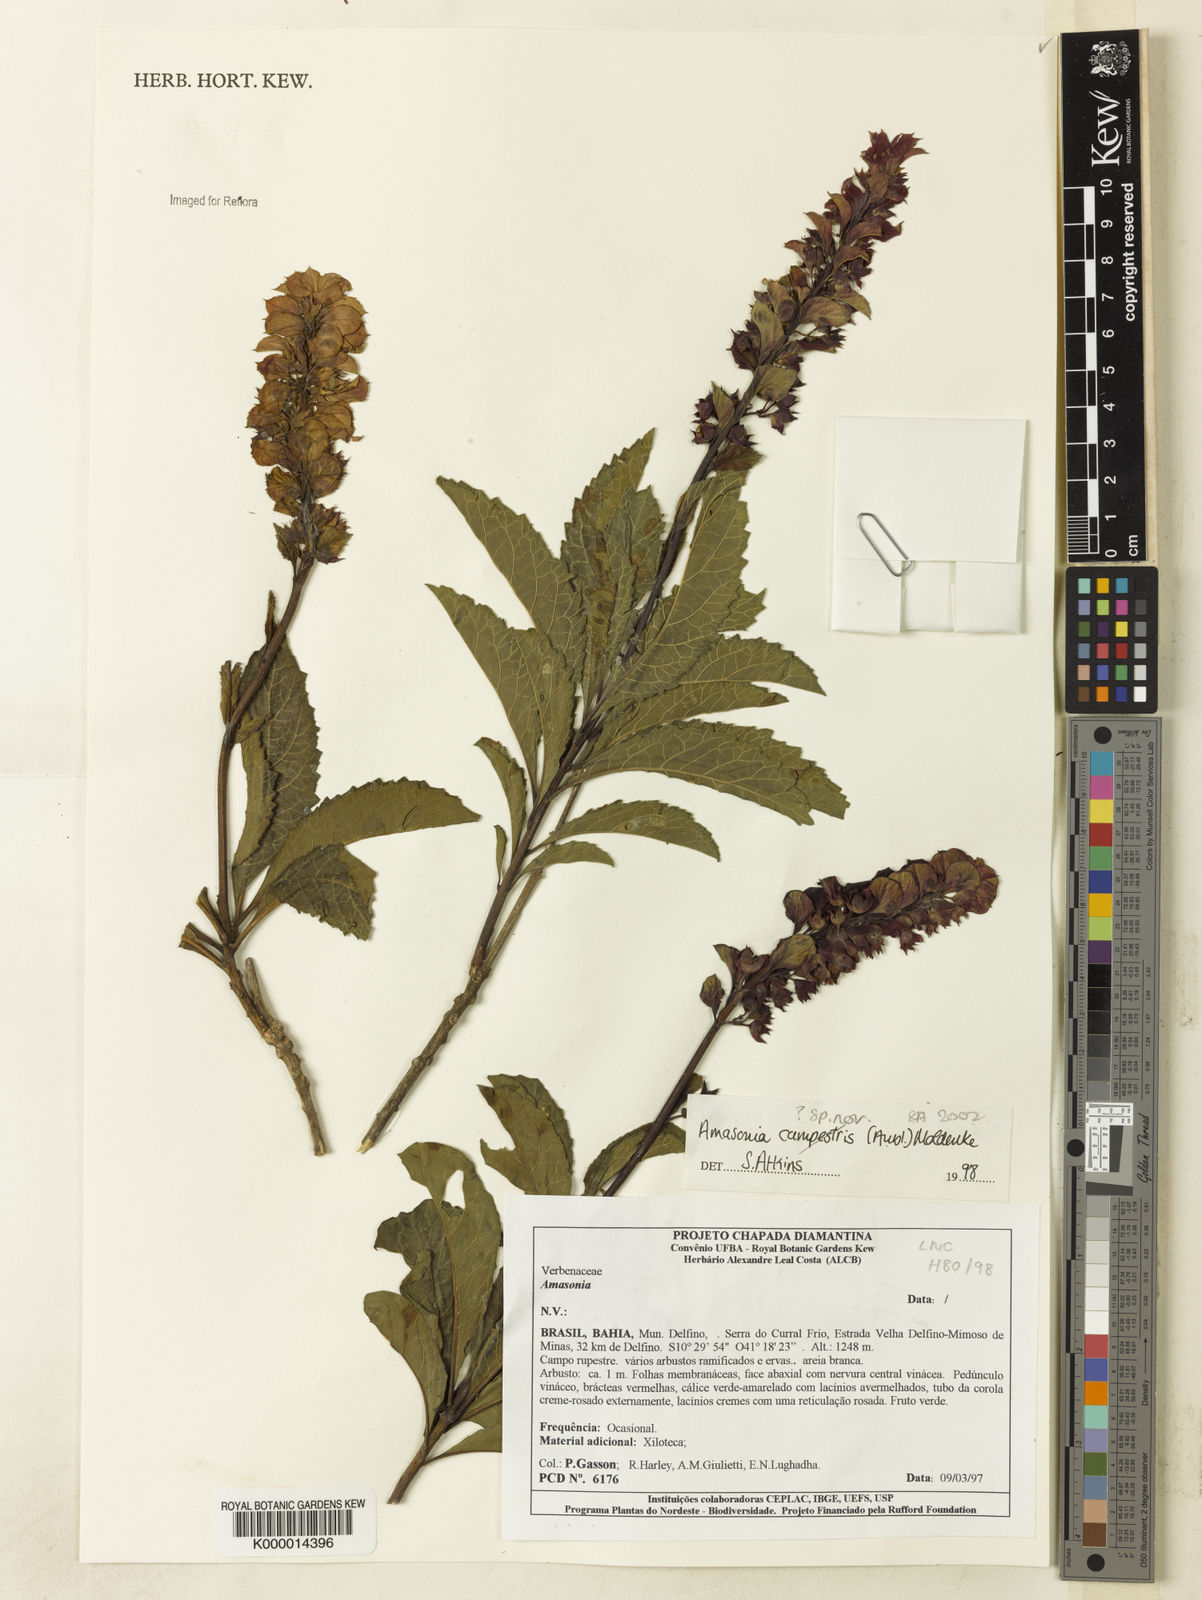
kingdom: Plantae
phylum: Tracheophyta
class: Magnoliopsida
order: Lamiales
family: Lamiaceae
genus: Amasonia
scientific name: Amasonia campestris
